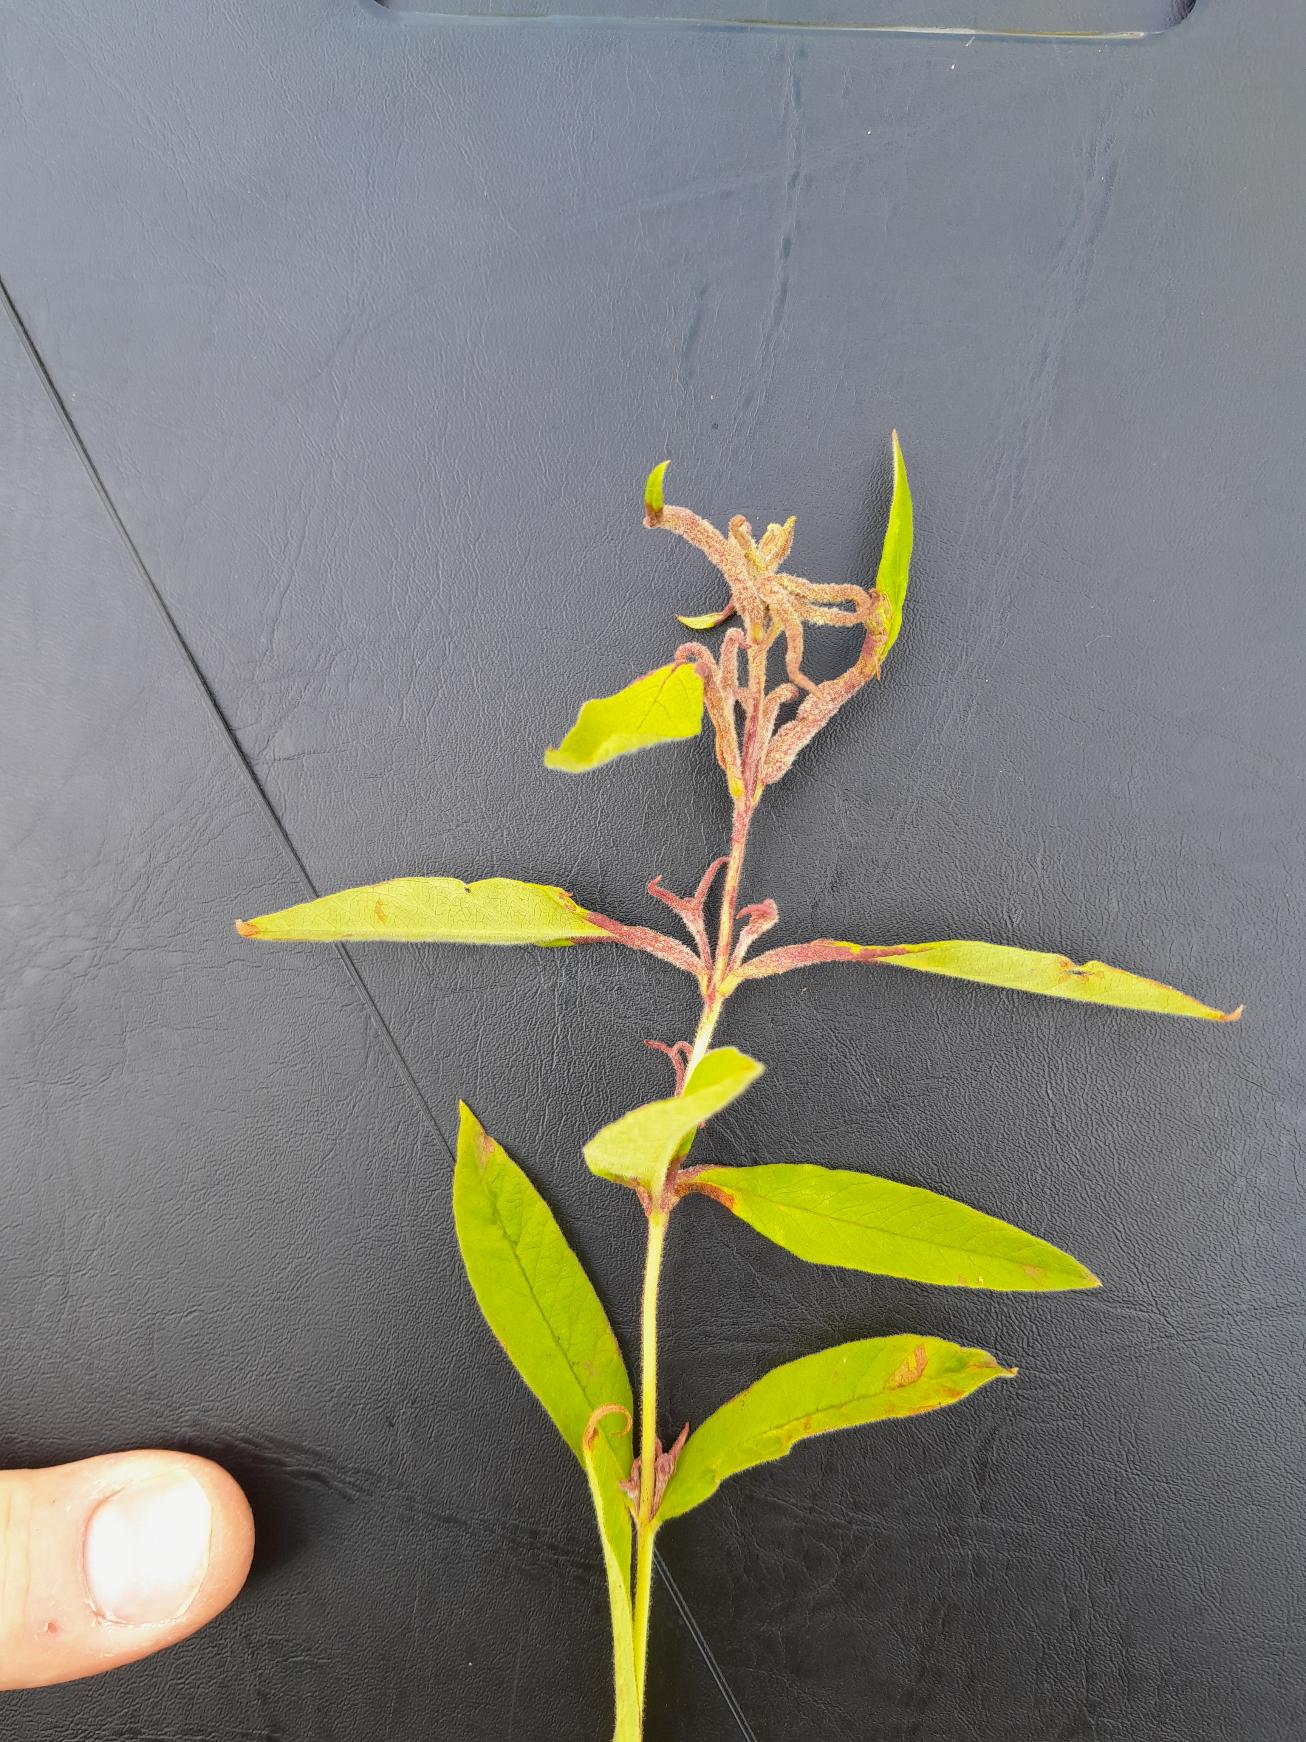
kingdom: Animalia
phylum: Arthropoda
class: Arachnida
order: Trombidiformes
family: Eriophyidae
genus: Aceria
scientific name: Aceria laticincta
